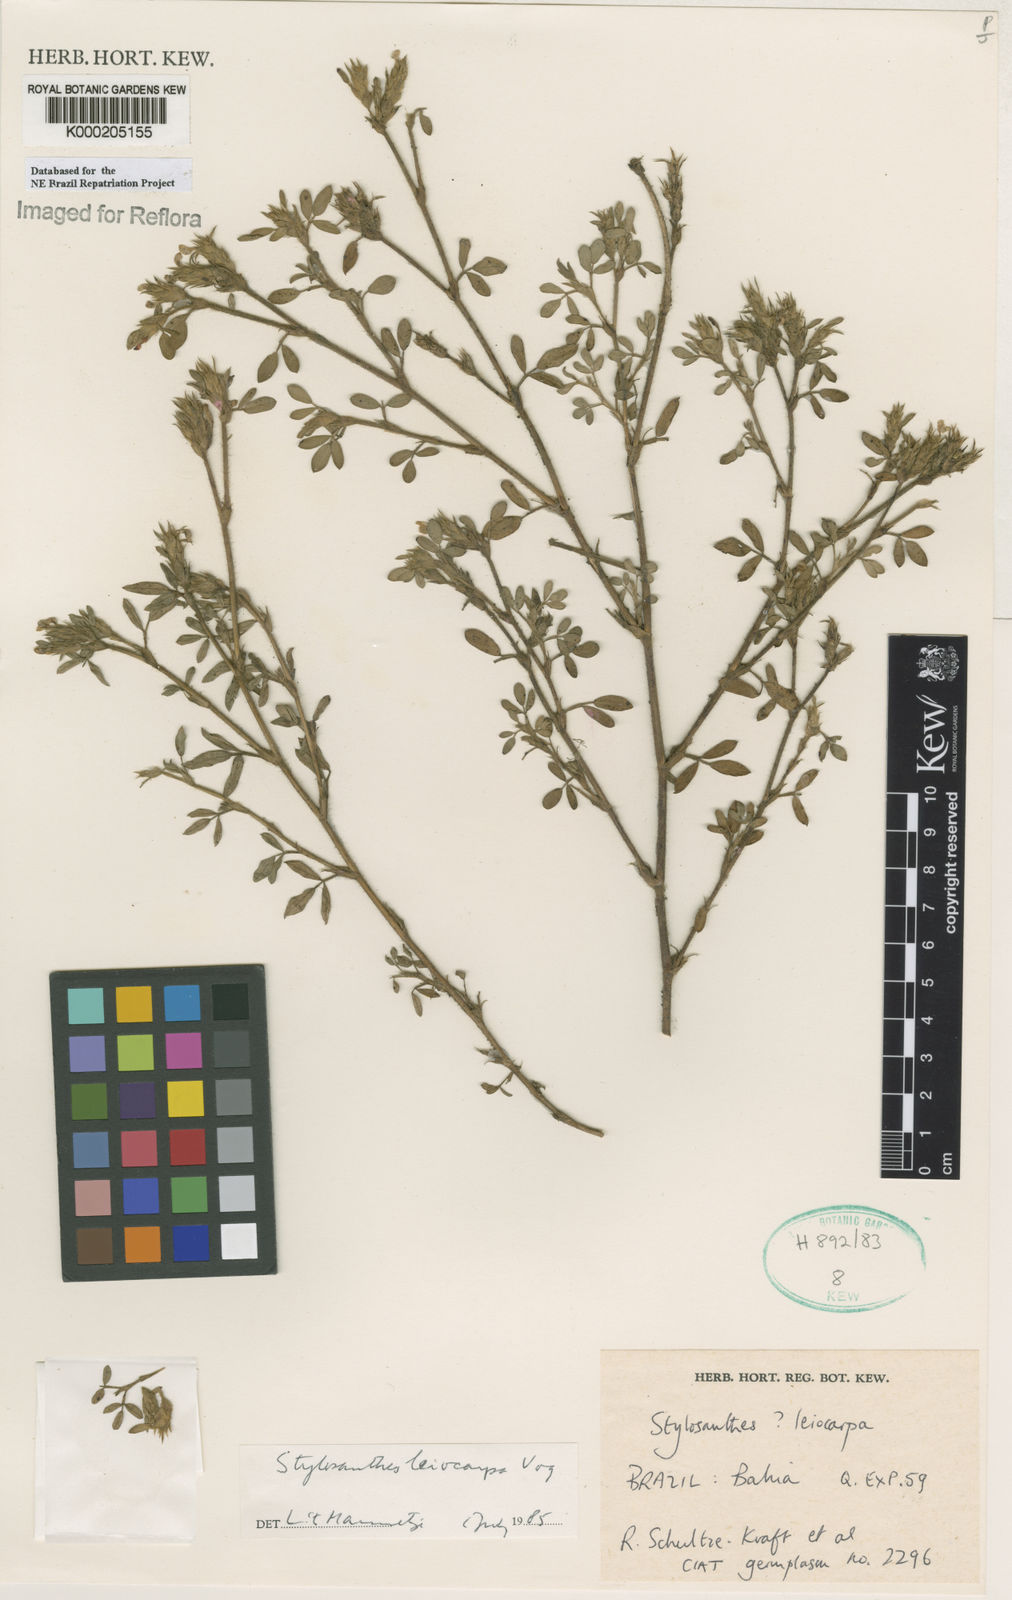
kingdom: Plantae
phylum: Tracheophyta
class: Magnoliopsida
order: Fabales
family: Fabaceae
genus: Stylosanthes
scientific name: Stylosanthes leiocarpa
